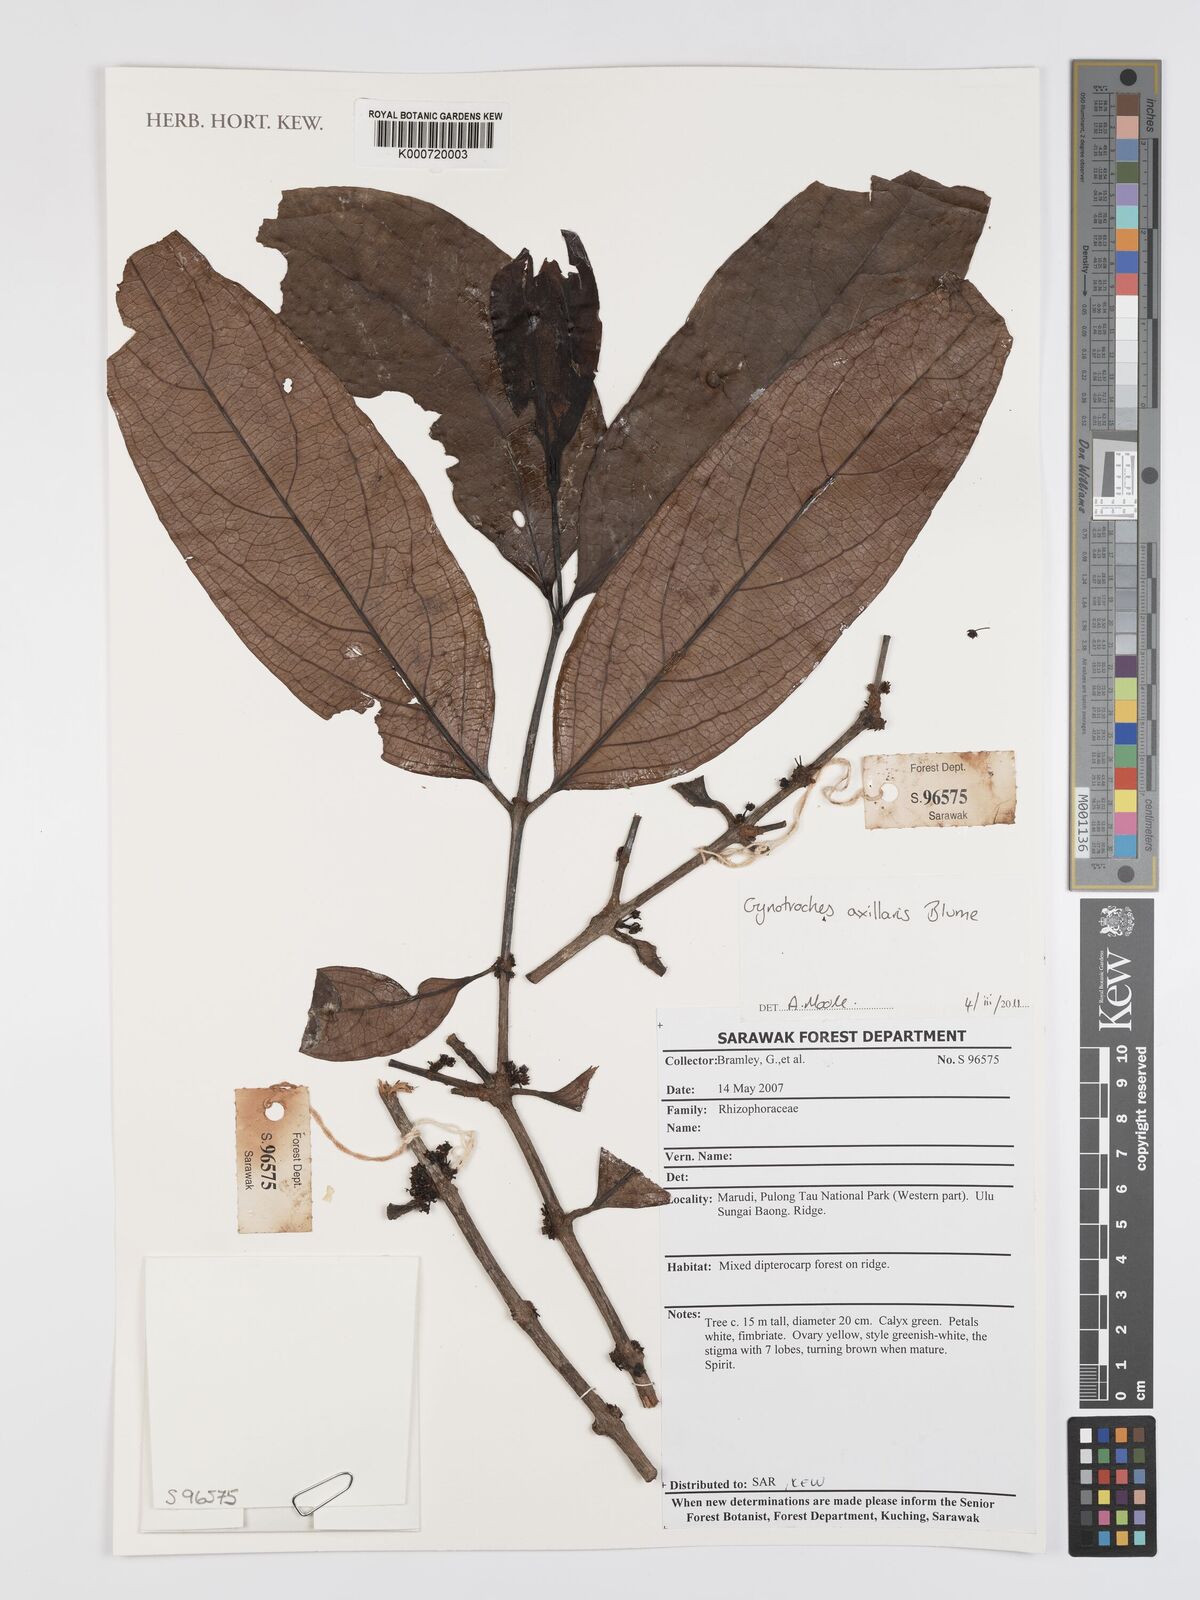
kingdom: Plantae
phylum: Tracheophyta
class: Magnoliopsida
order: Malpighiales
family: Rhizophoraceae
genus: Gynotroches
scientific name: Gynotroches axillaris
